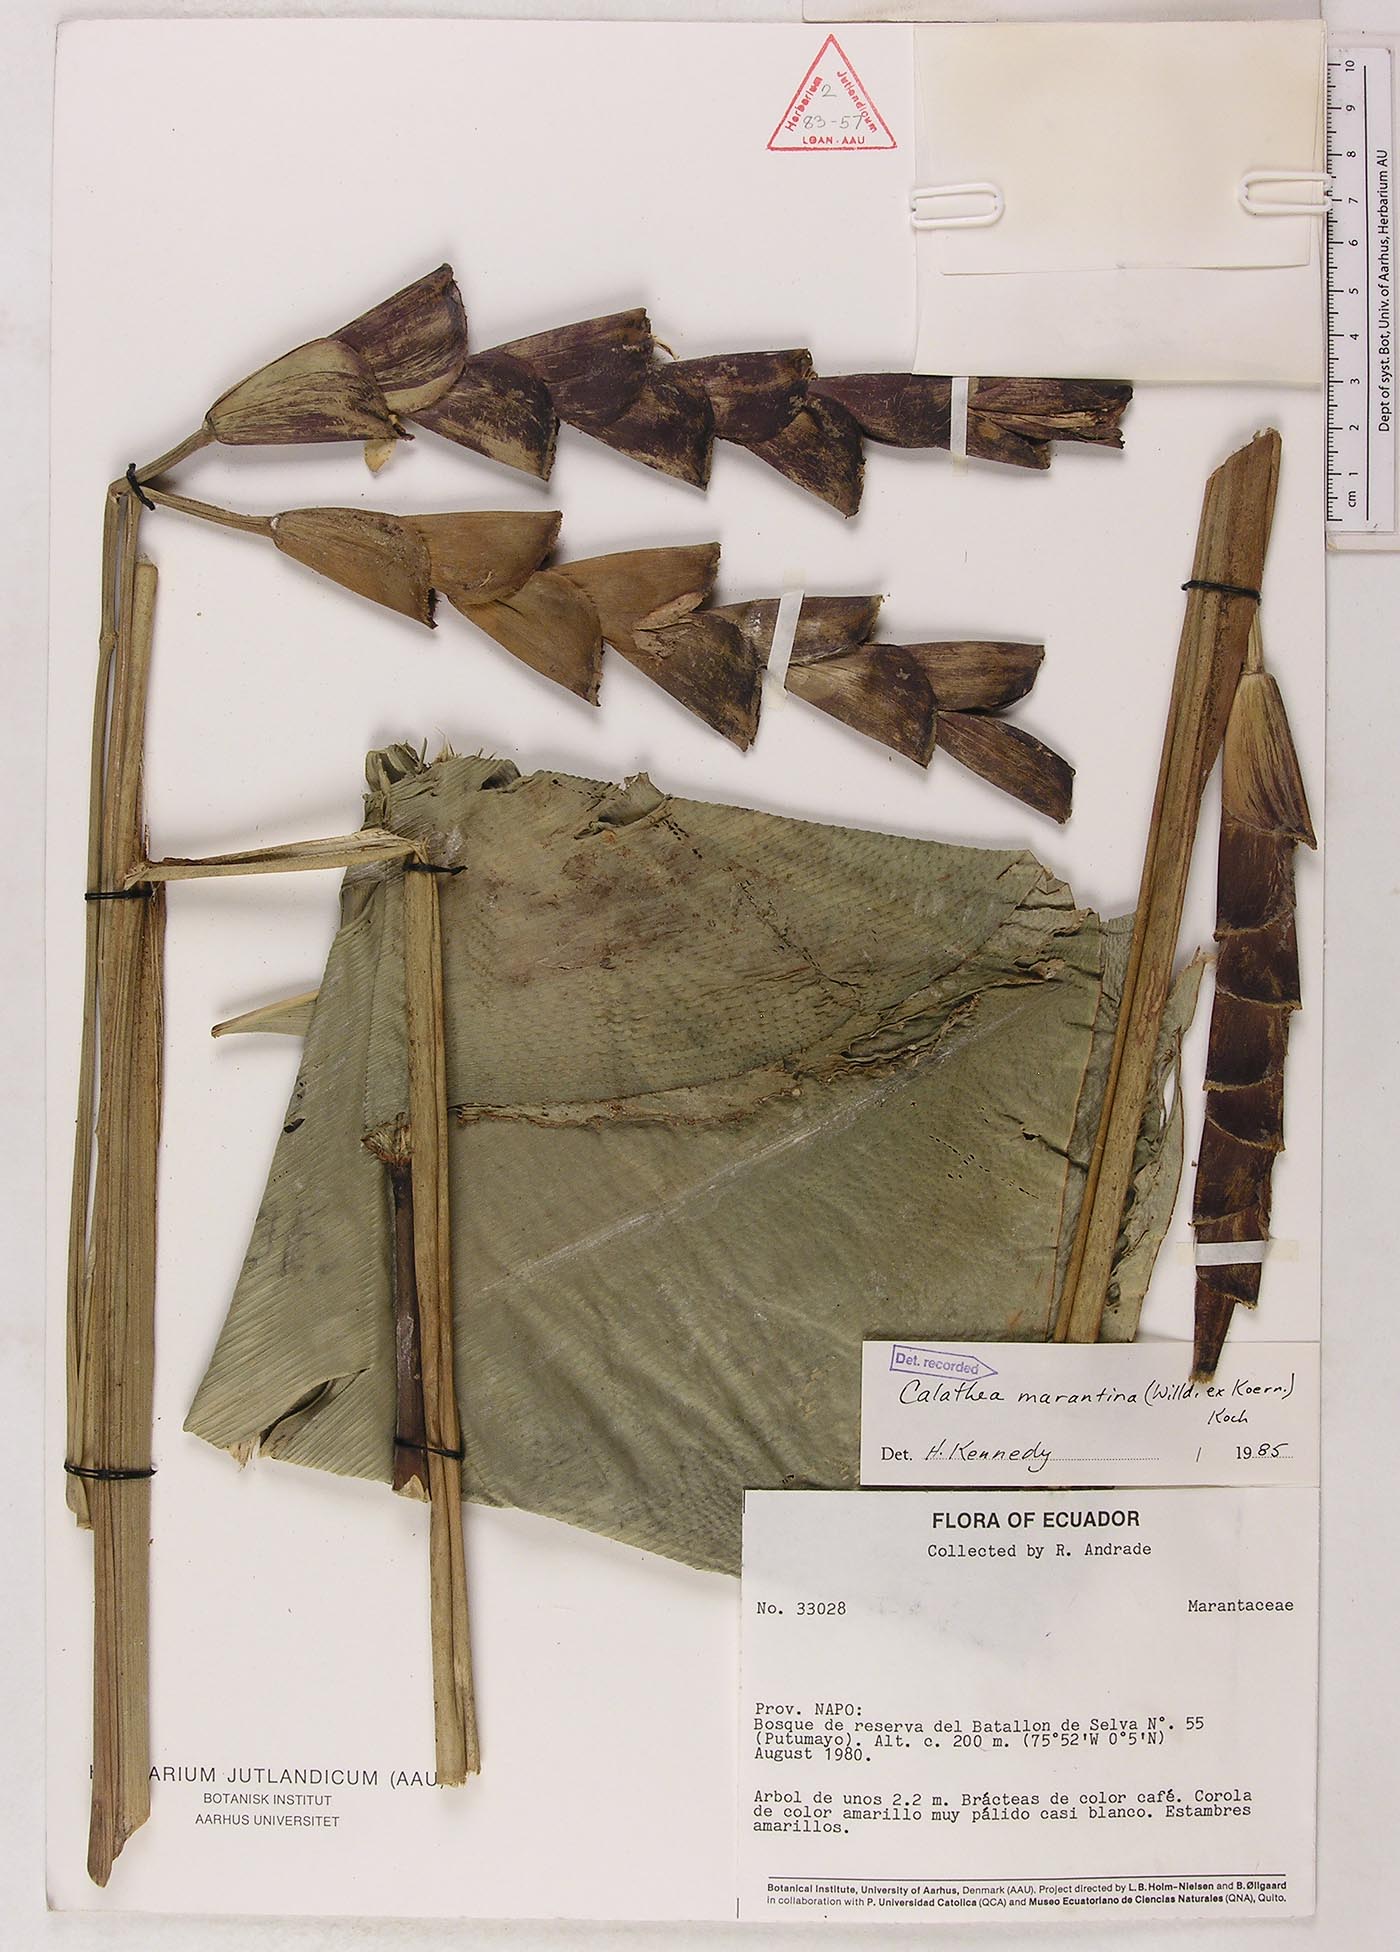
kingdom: Plantae
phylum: Tracheophyta
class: Liliopsida
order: Zingiberales
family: Marantaceae
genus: Calathea
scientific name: Calathea marantina
